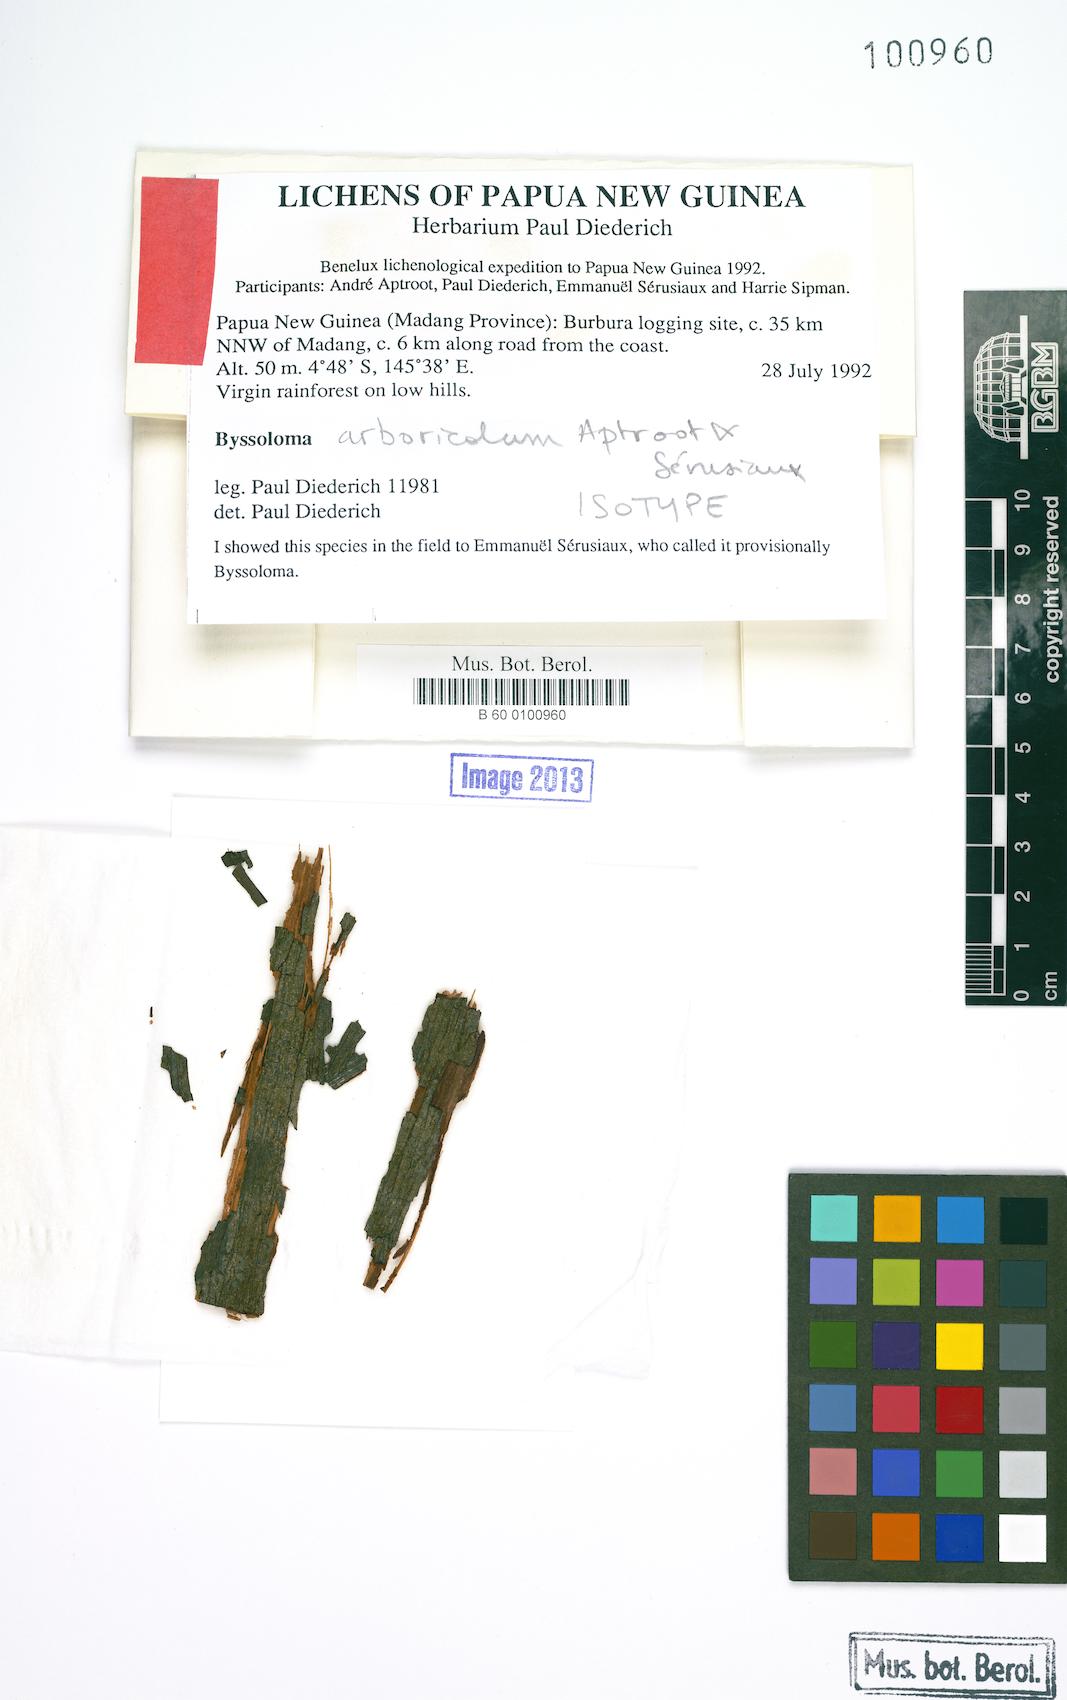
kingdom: Fungi
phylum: Ascomycota
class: Lecanoromycetes
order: Lecanorales
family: Pilocarpaceae
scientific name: Pilocarpaceae
